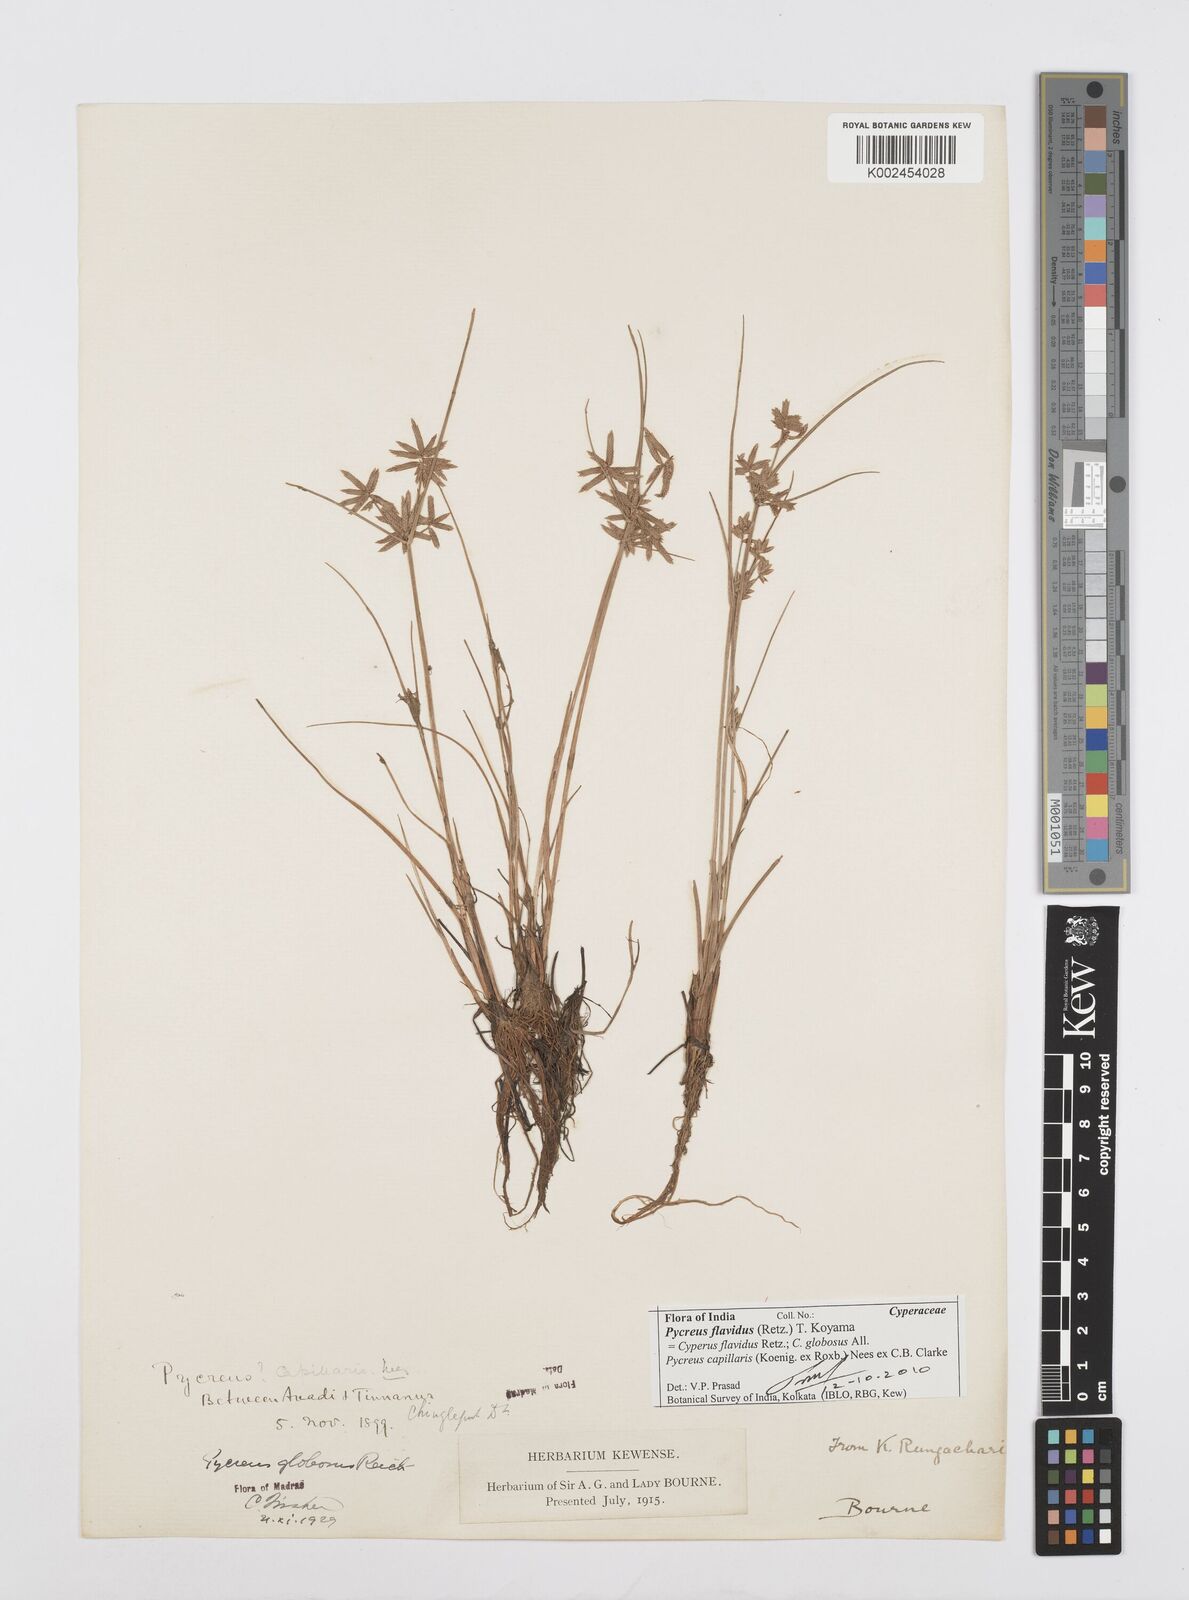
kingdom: Plantae
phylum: Tracheophyta
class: Liliopsida
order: Poales
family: Cyperaceae
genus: Cyperus
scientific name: Cyperus flavidus
